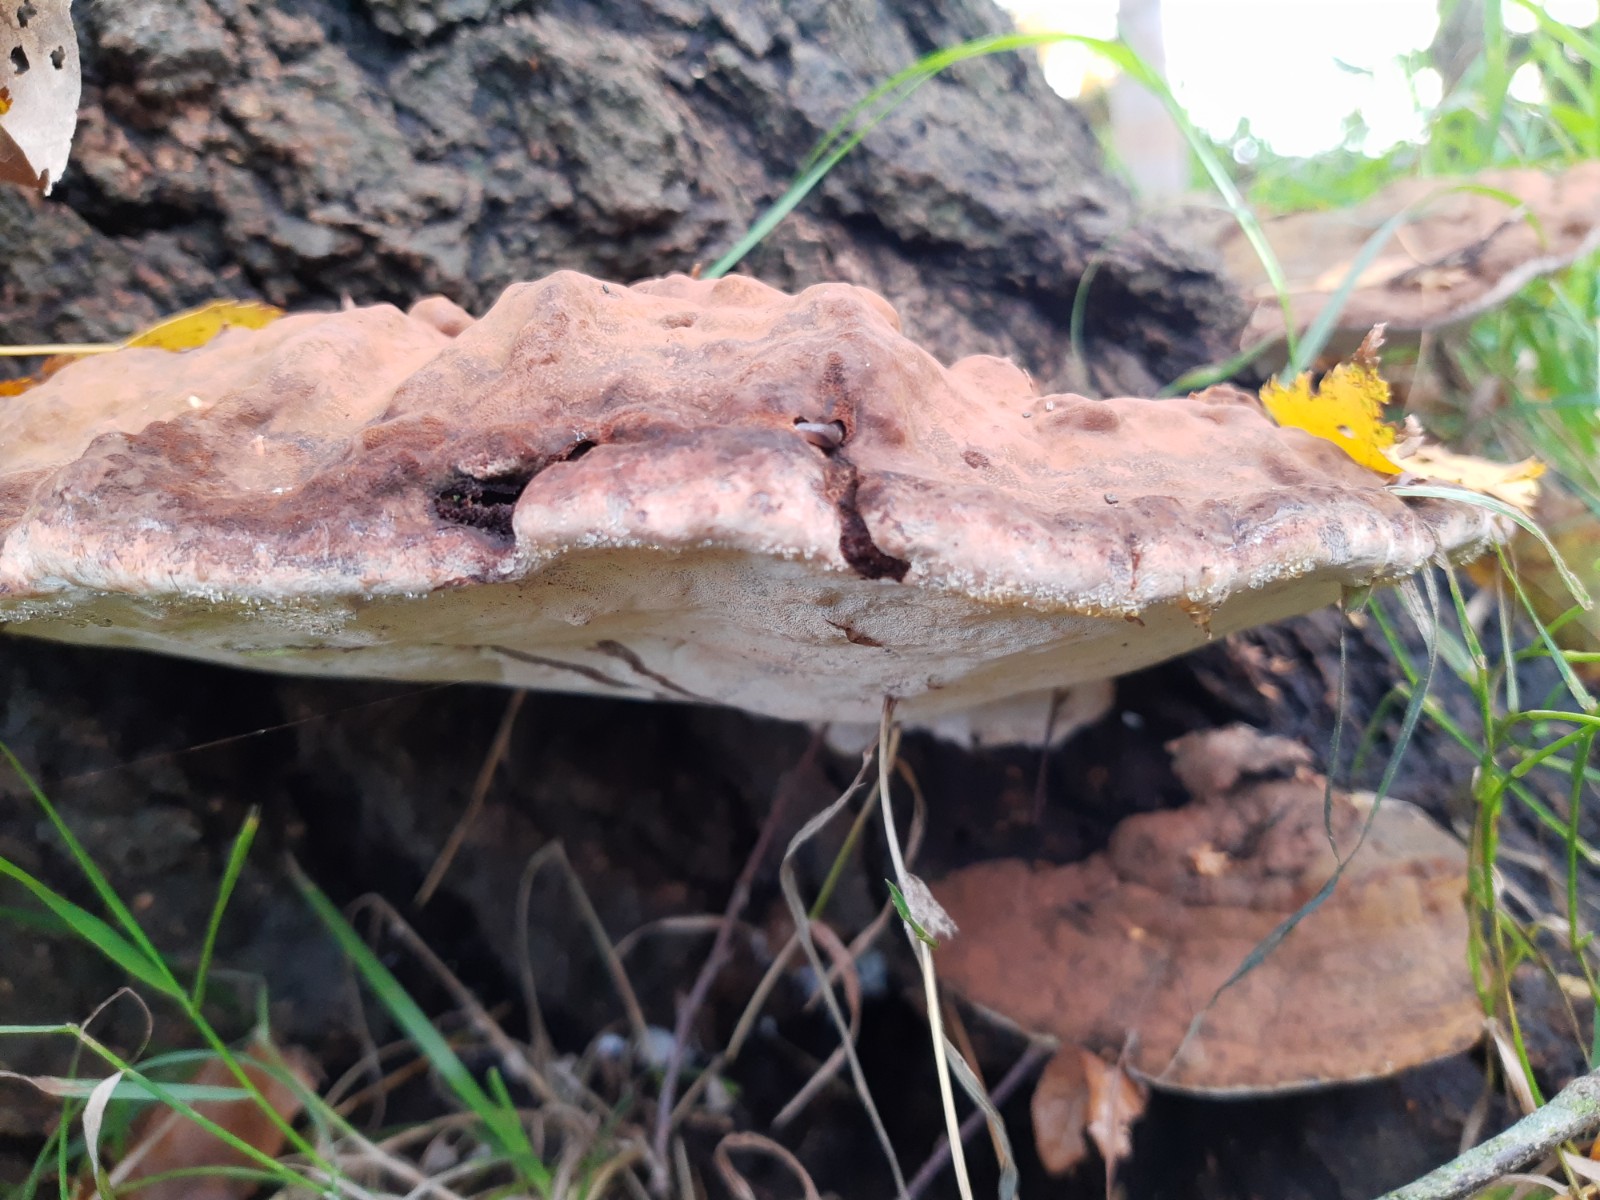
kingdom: Fungi
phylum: Basidiomycota
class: Agaricomycetes
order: Polyporales
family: Polyporaceae
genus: Ganoderma
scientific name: Ganoderma applanatum
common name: flad lakporesvamp
